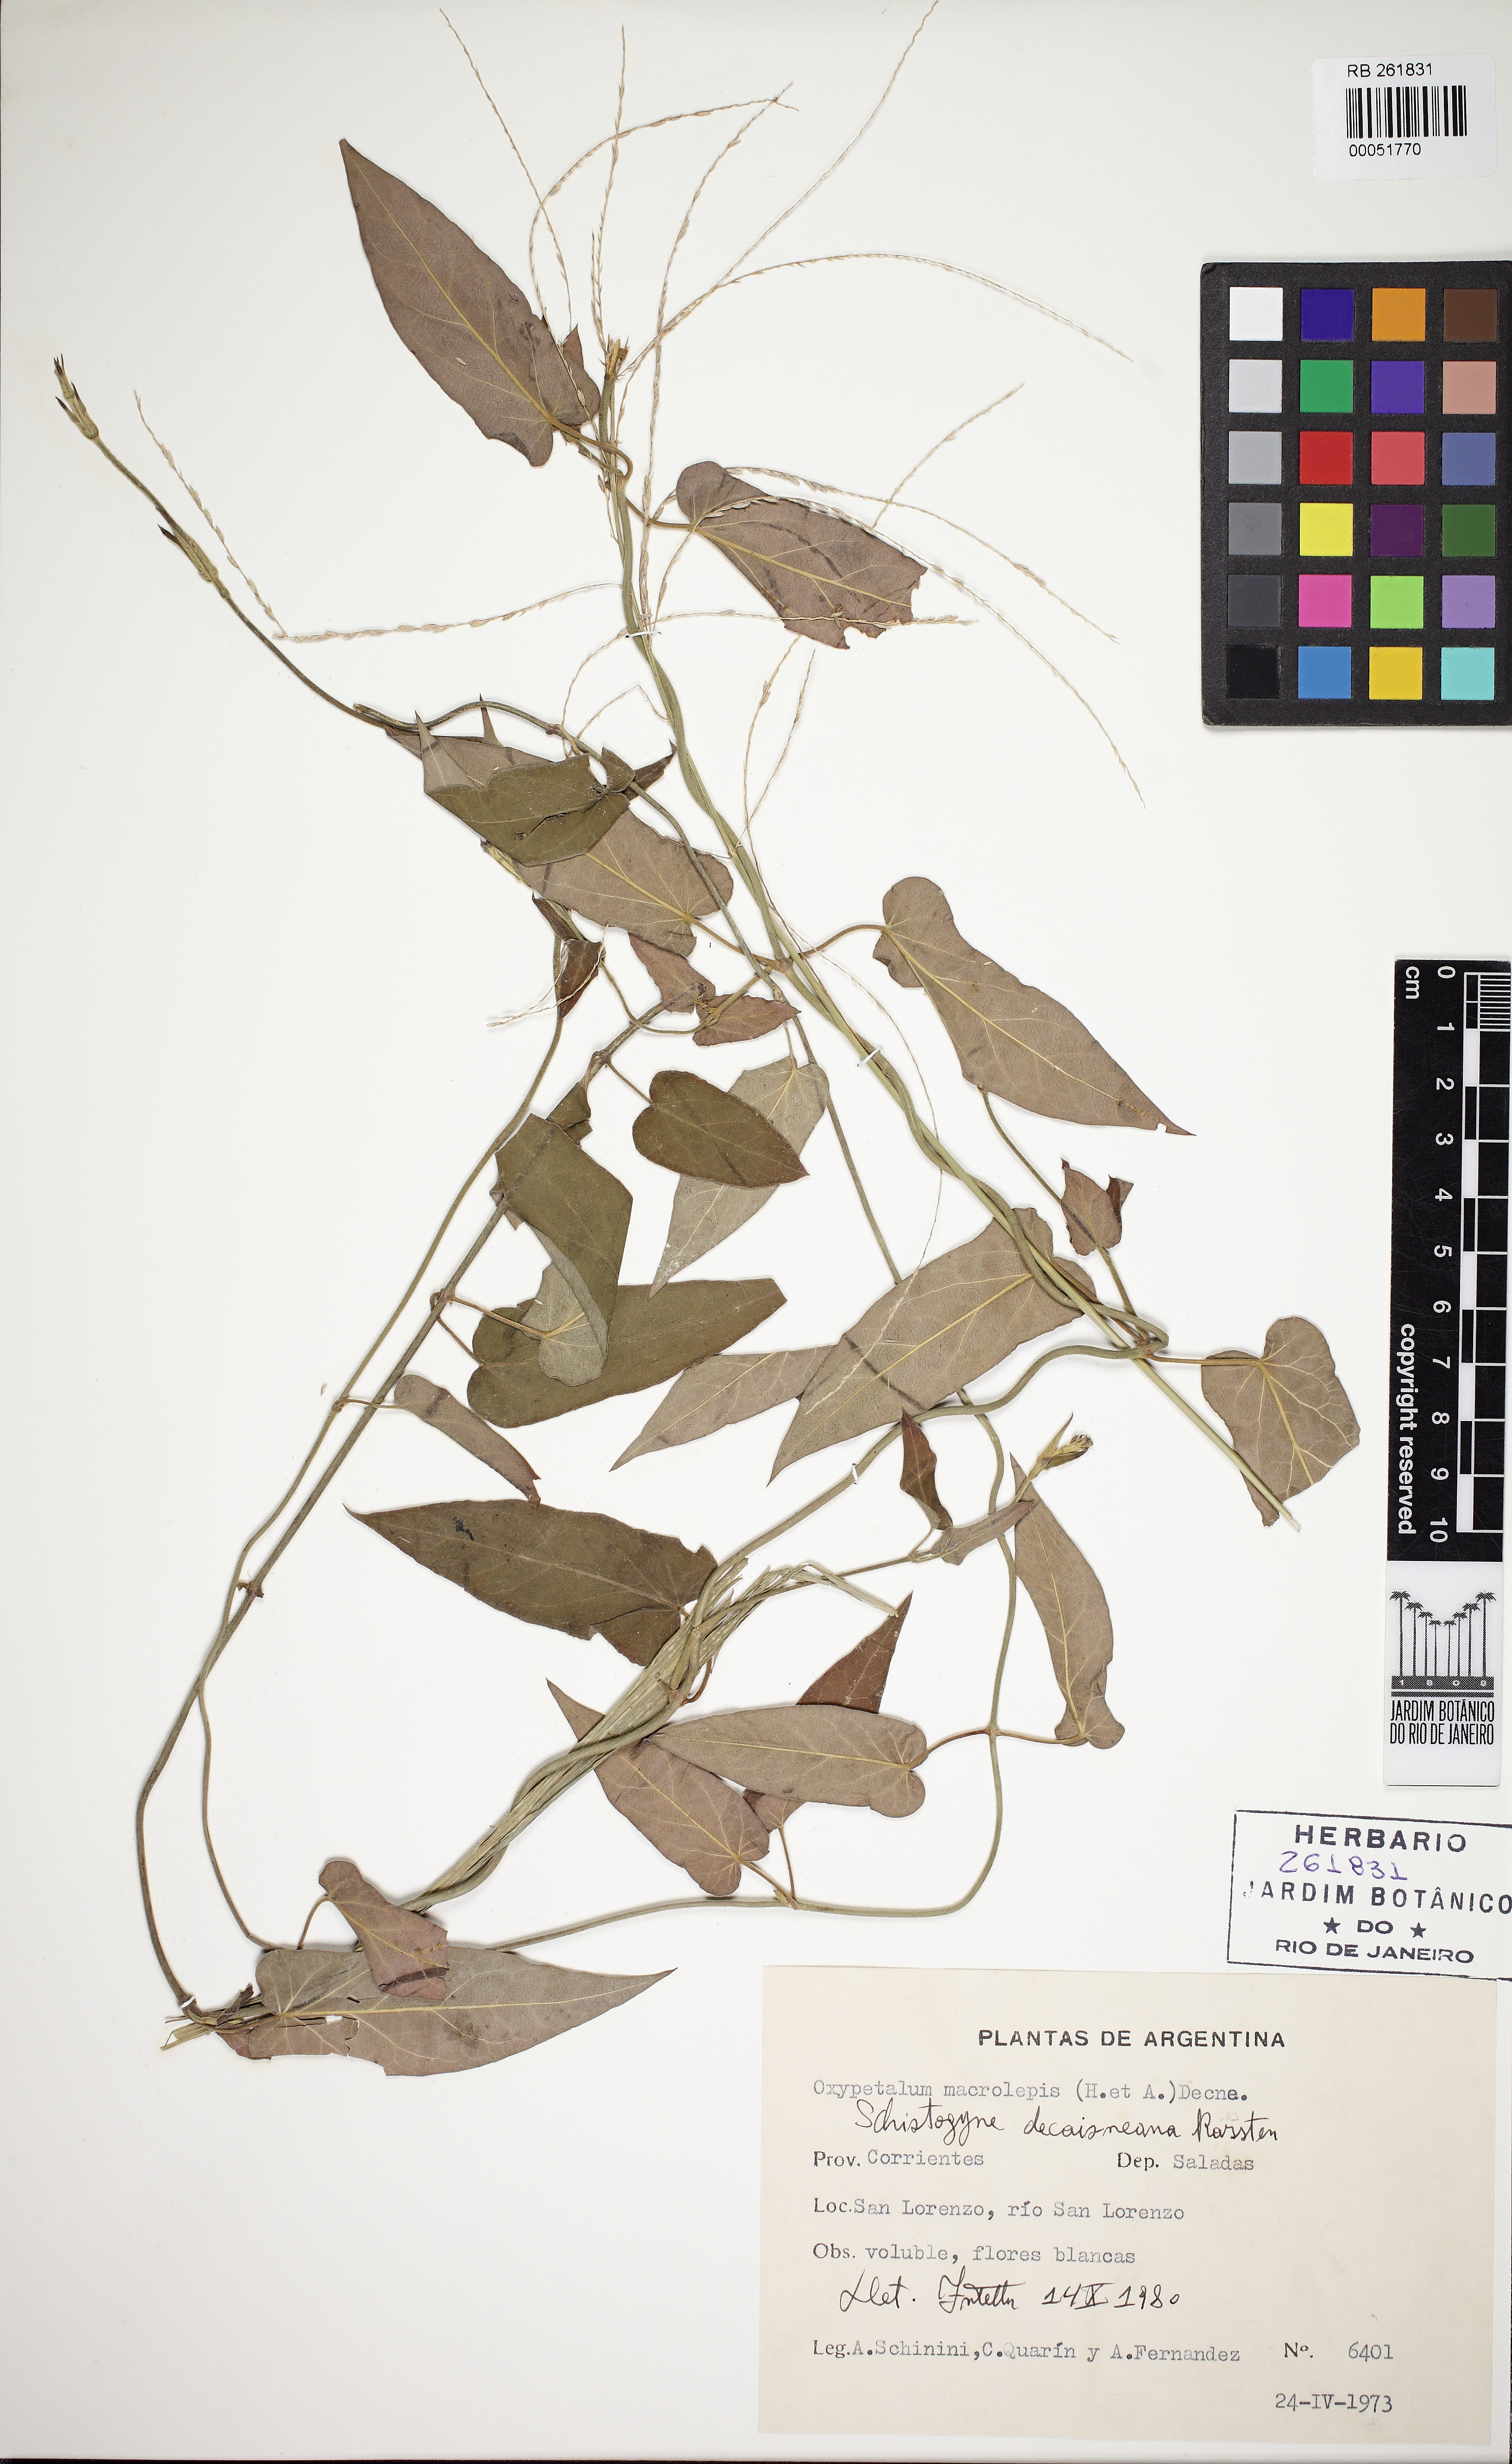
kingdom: Plantae
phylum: Tracheophyta
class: Magnoliopsida
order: Gentianales
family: Apocynaceae
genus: Oxypetalum
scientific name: Oxypetalum karstenianum
